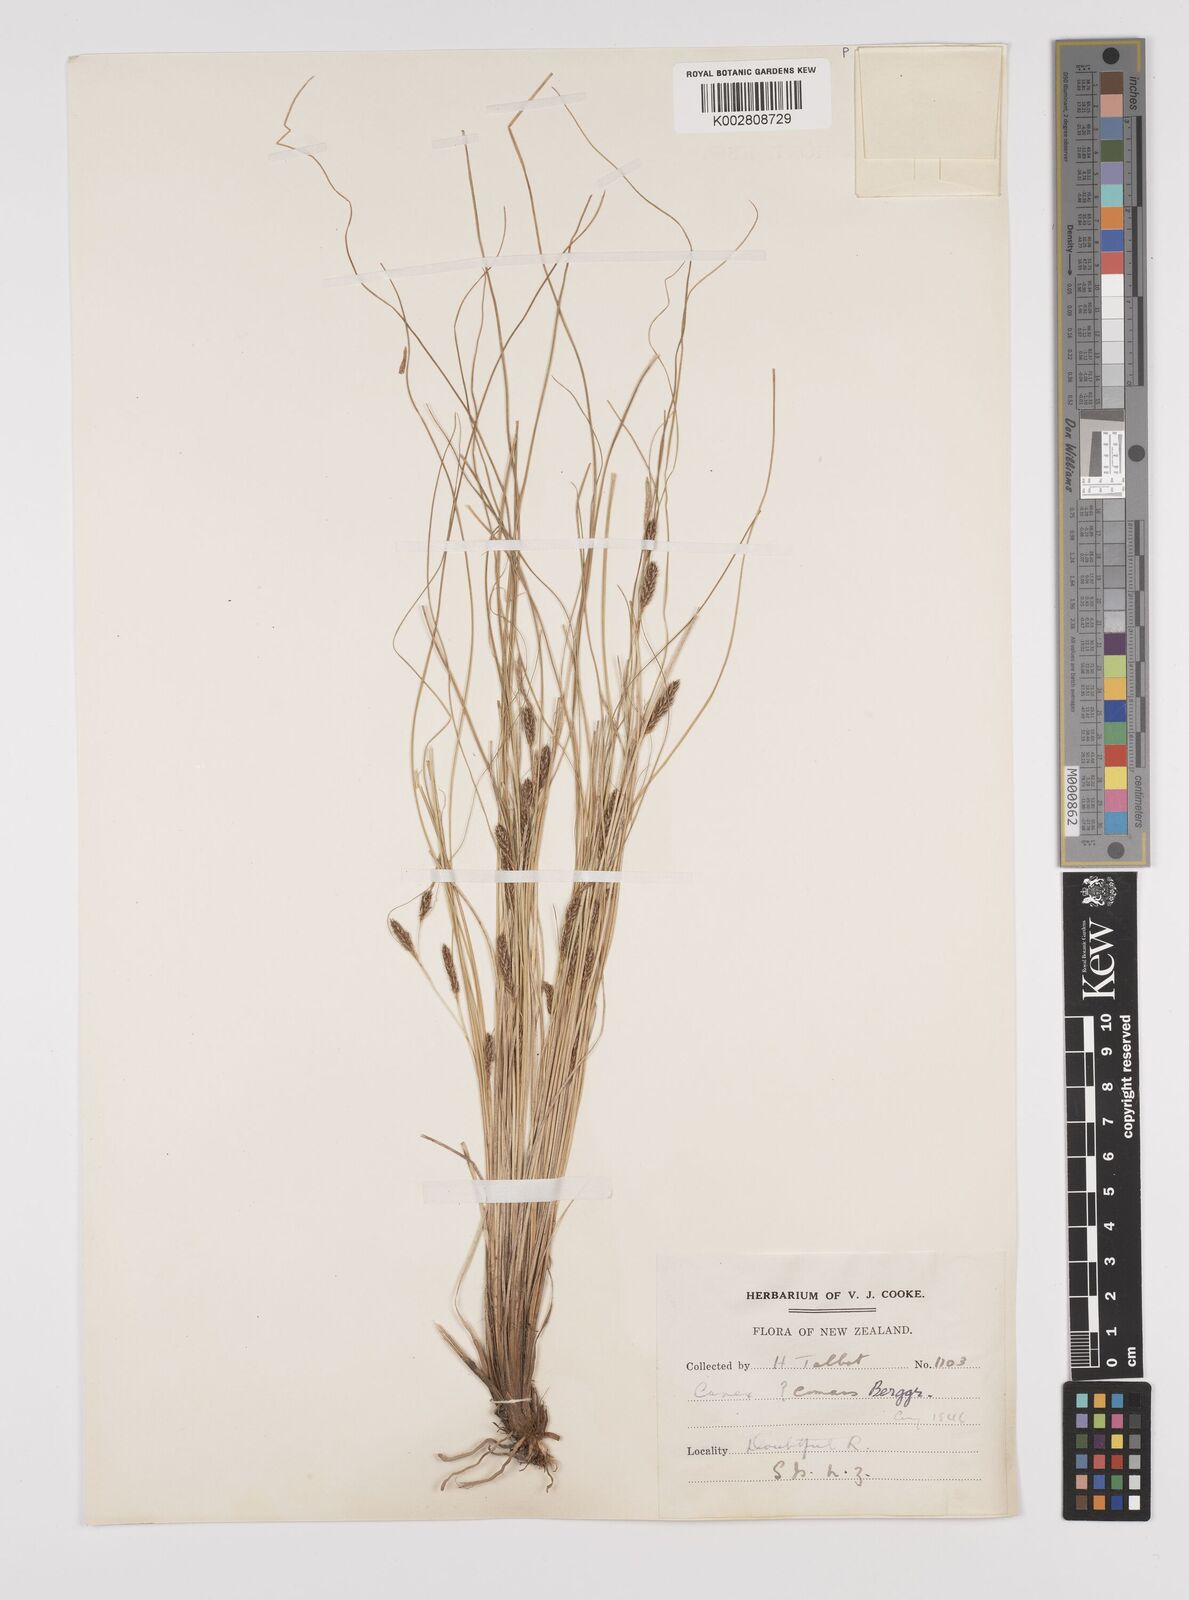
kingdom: Plantae
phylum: Tracheophyta
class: Liliopsida
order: Poales
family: Cyperaceae
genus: Carex
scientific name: Carex comans
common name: Longwood tussock
